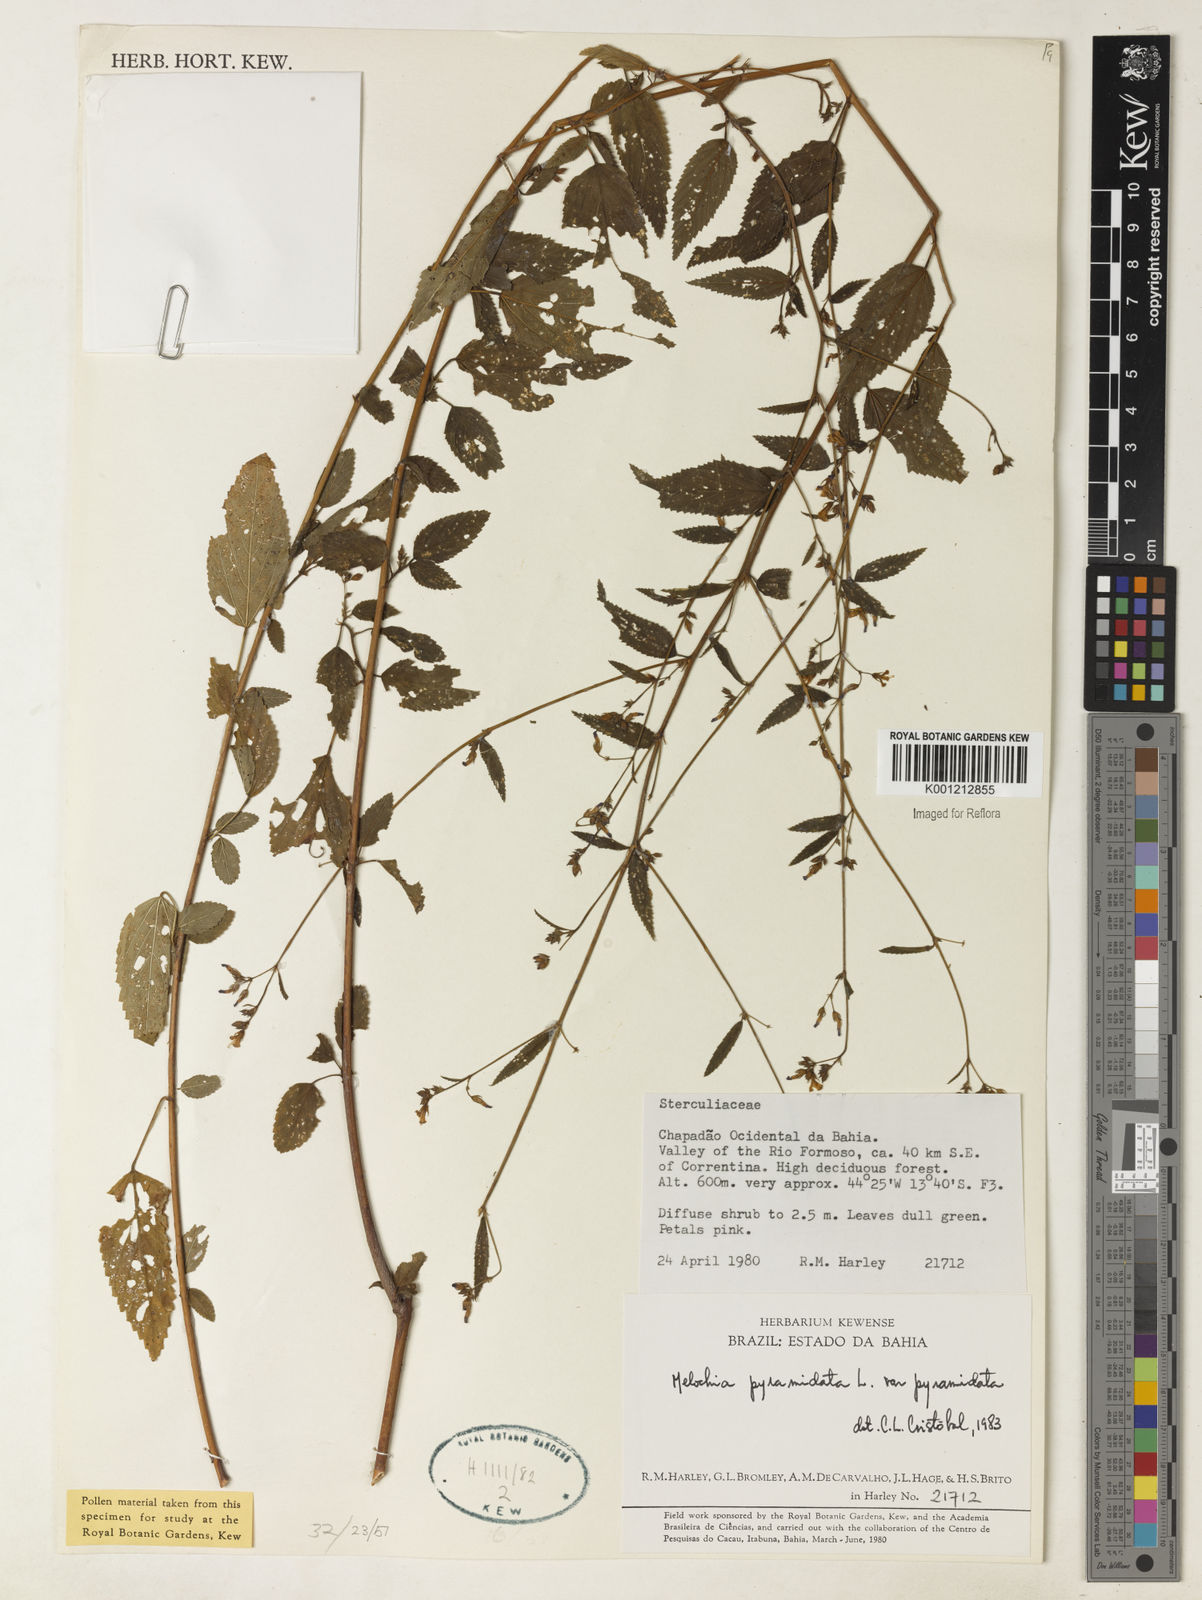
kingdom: Plantae
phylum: Tracheophyta
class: Magnoliopsida
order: Malvales
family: Malvaceae
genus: Melochia
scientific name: Melochia pyramidata
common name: Pyramidflower
